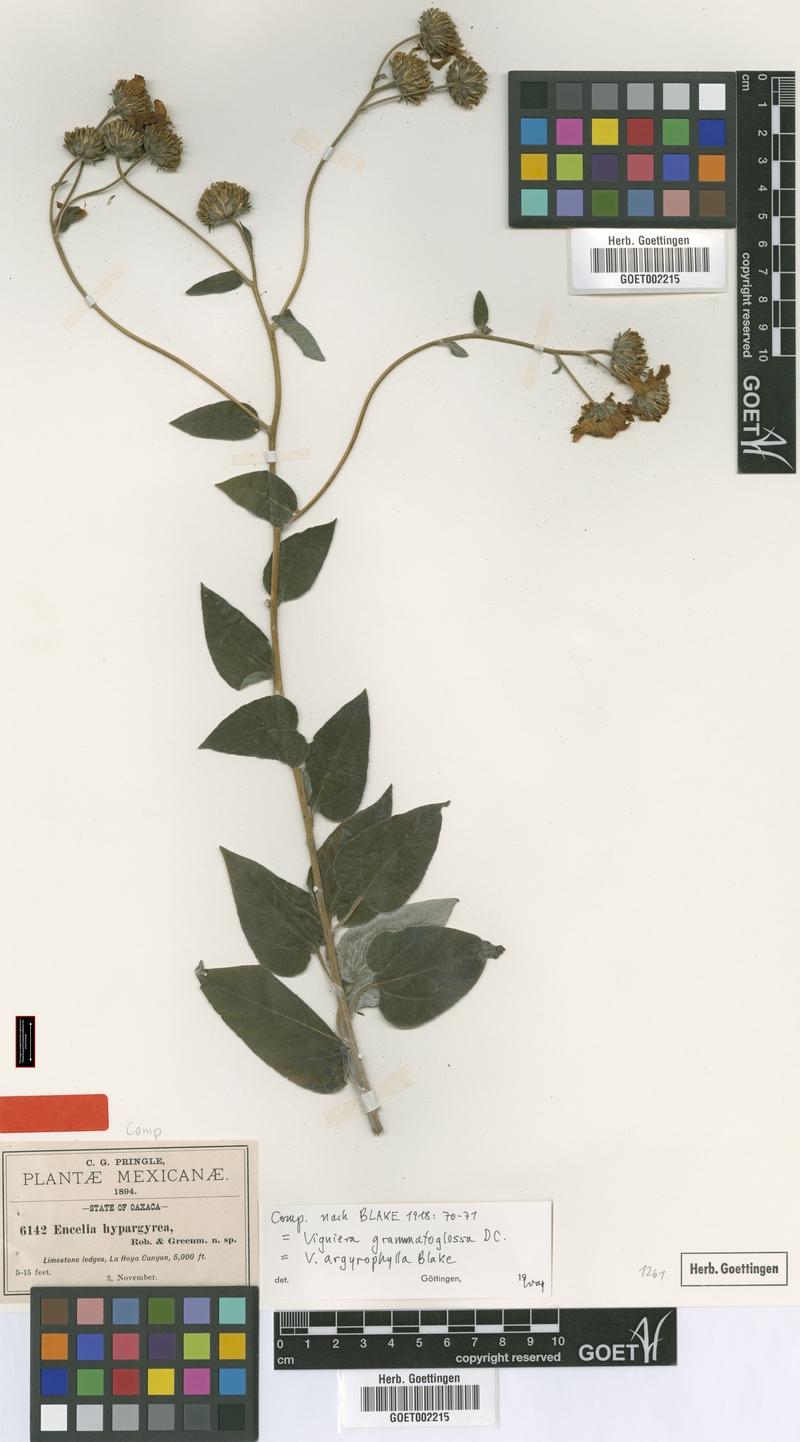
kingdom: Plantae
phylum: Tracheophyta
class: Magnoliopsida
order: Asterales
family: Asteraceae
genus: Viguiera
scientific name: Viguiera grammatoglossa
